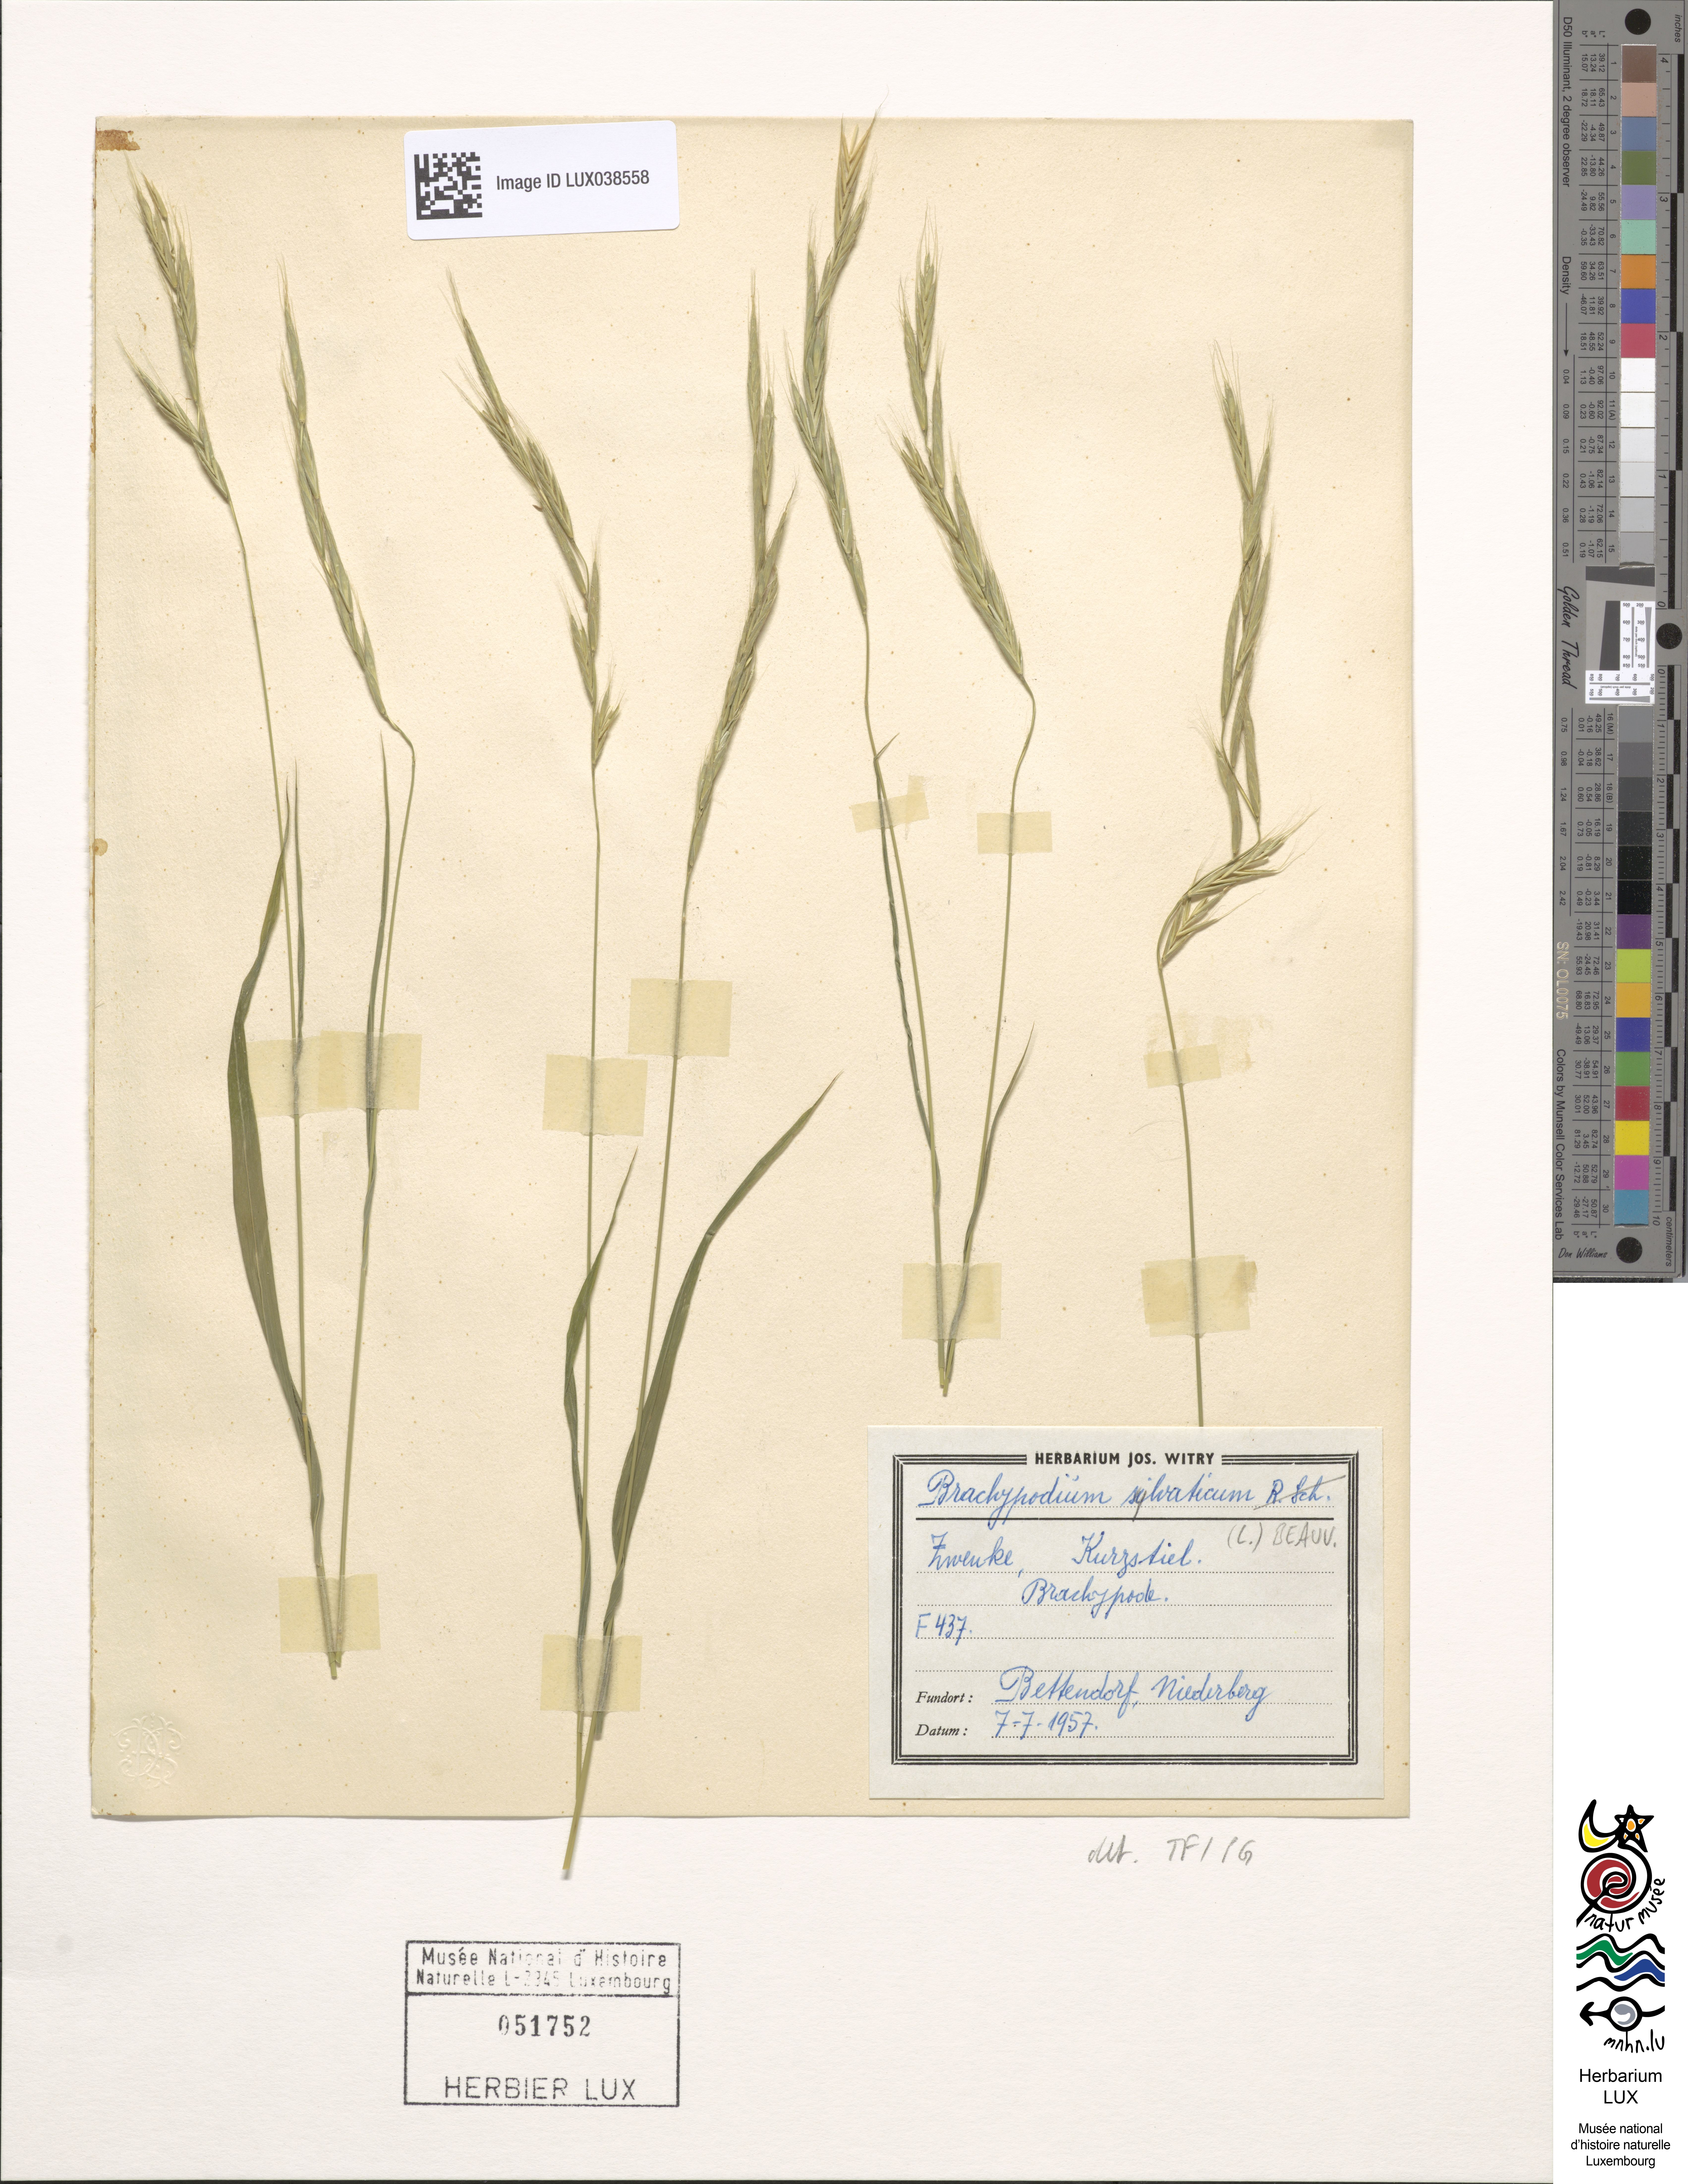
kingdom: Plantae
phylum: Tracheophyta
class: Liliopsida
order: Poales
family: Poaceae
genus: Brachypodium
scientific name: Brachypodium sylvaticum
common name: False-brome
